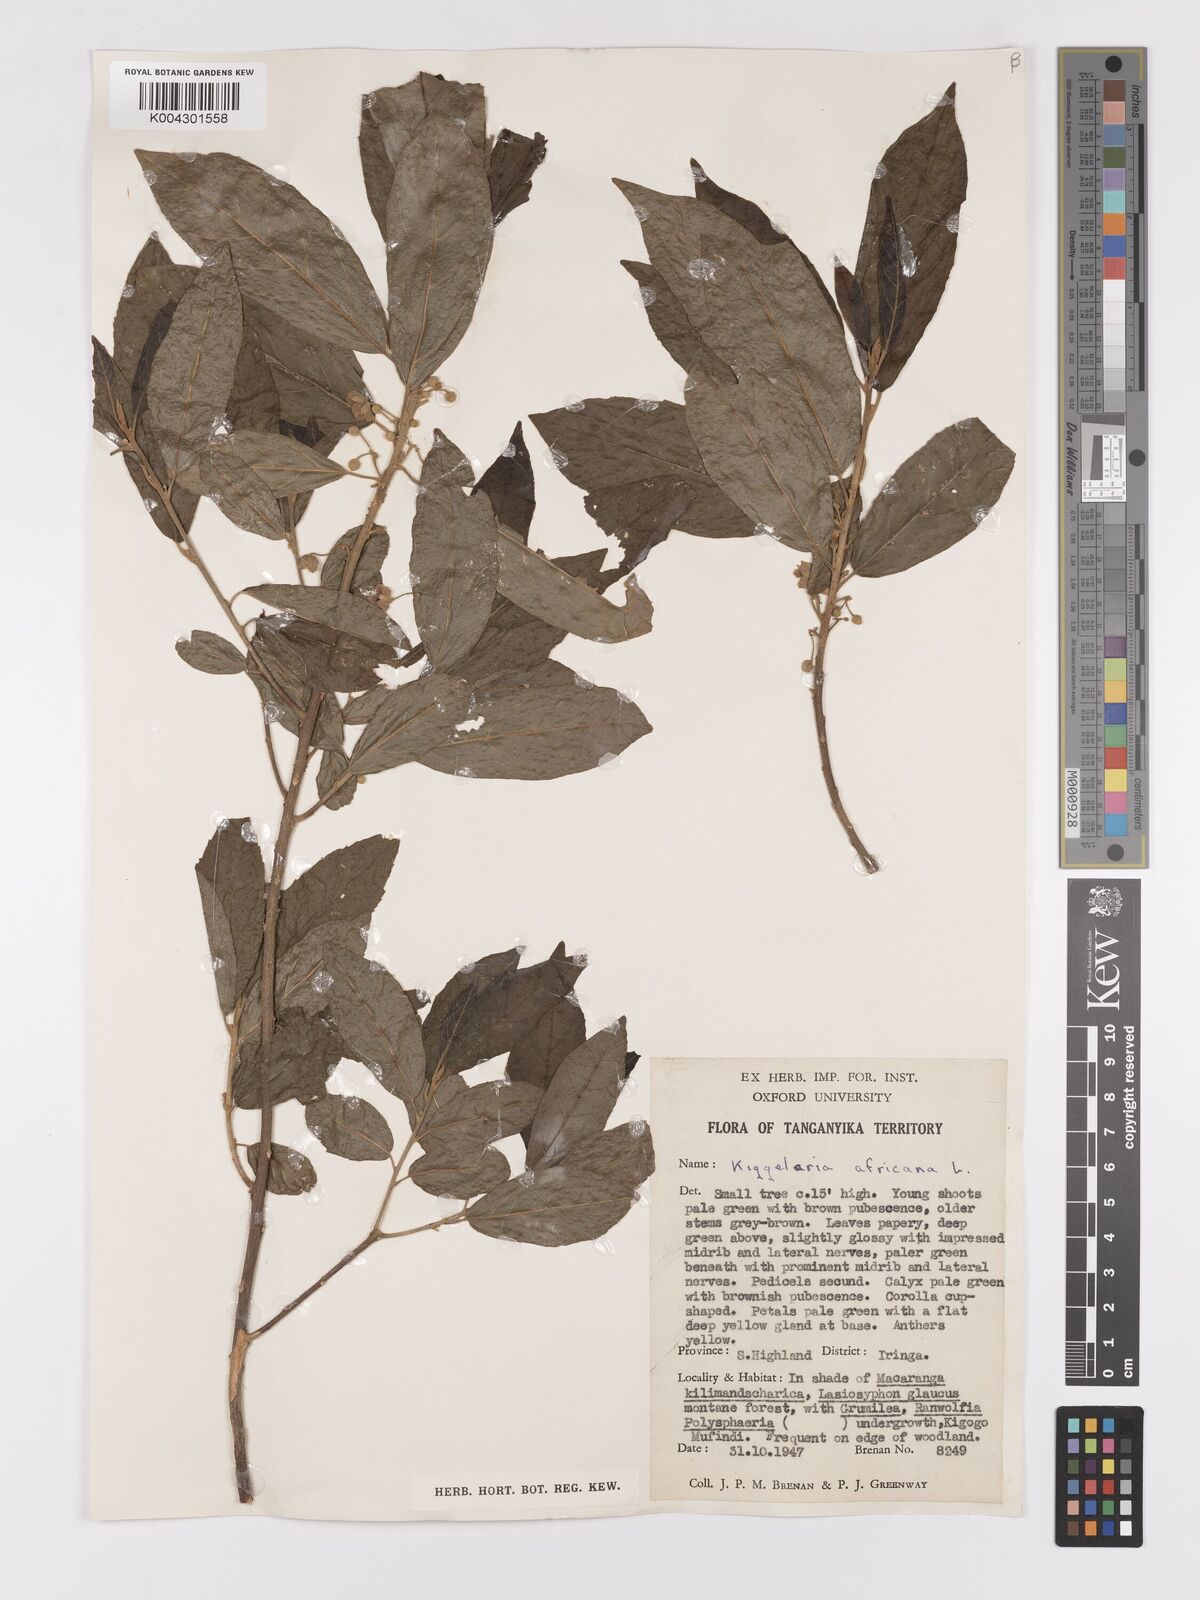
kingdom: Plantae
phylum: Tracheophyta
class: Magnoliopsida
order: Malpighiales
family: Achariaceae
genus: Kiggelaria
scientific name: Kiggelaria africana
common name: Wild peach
